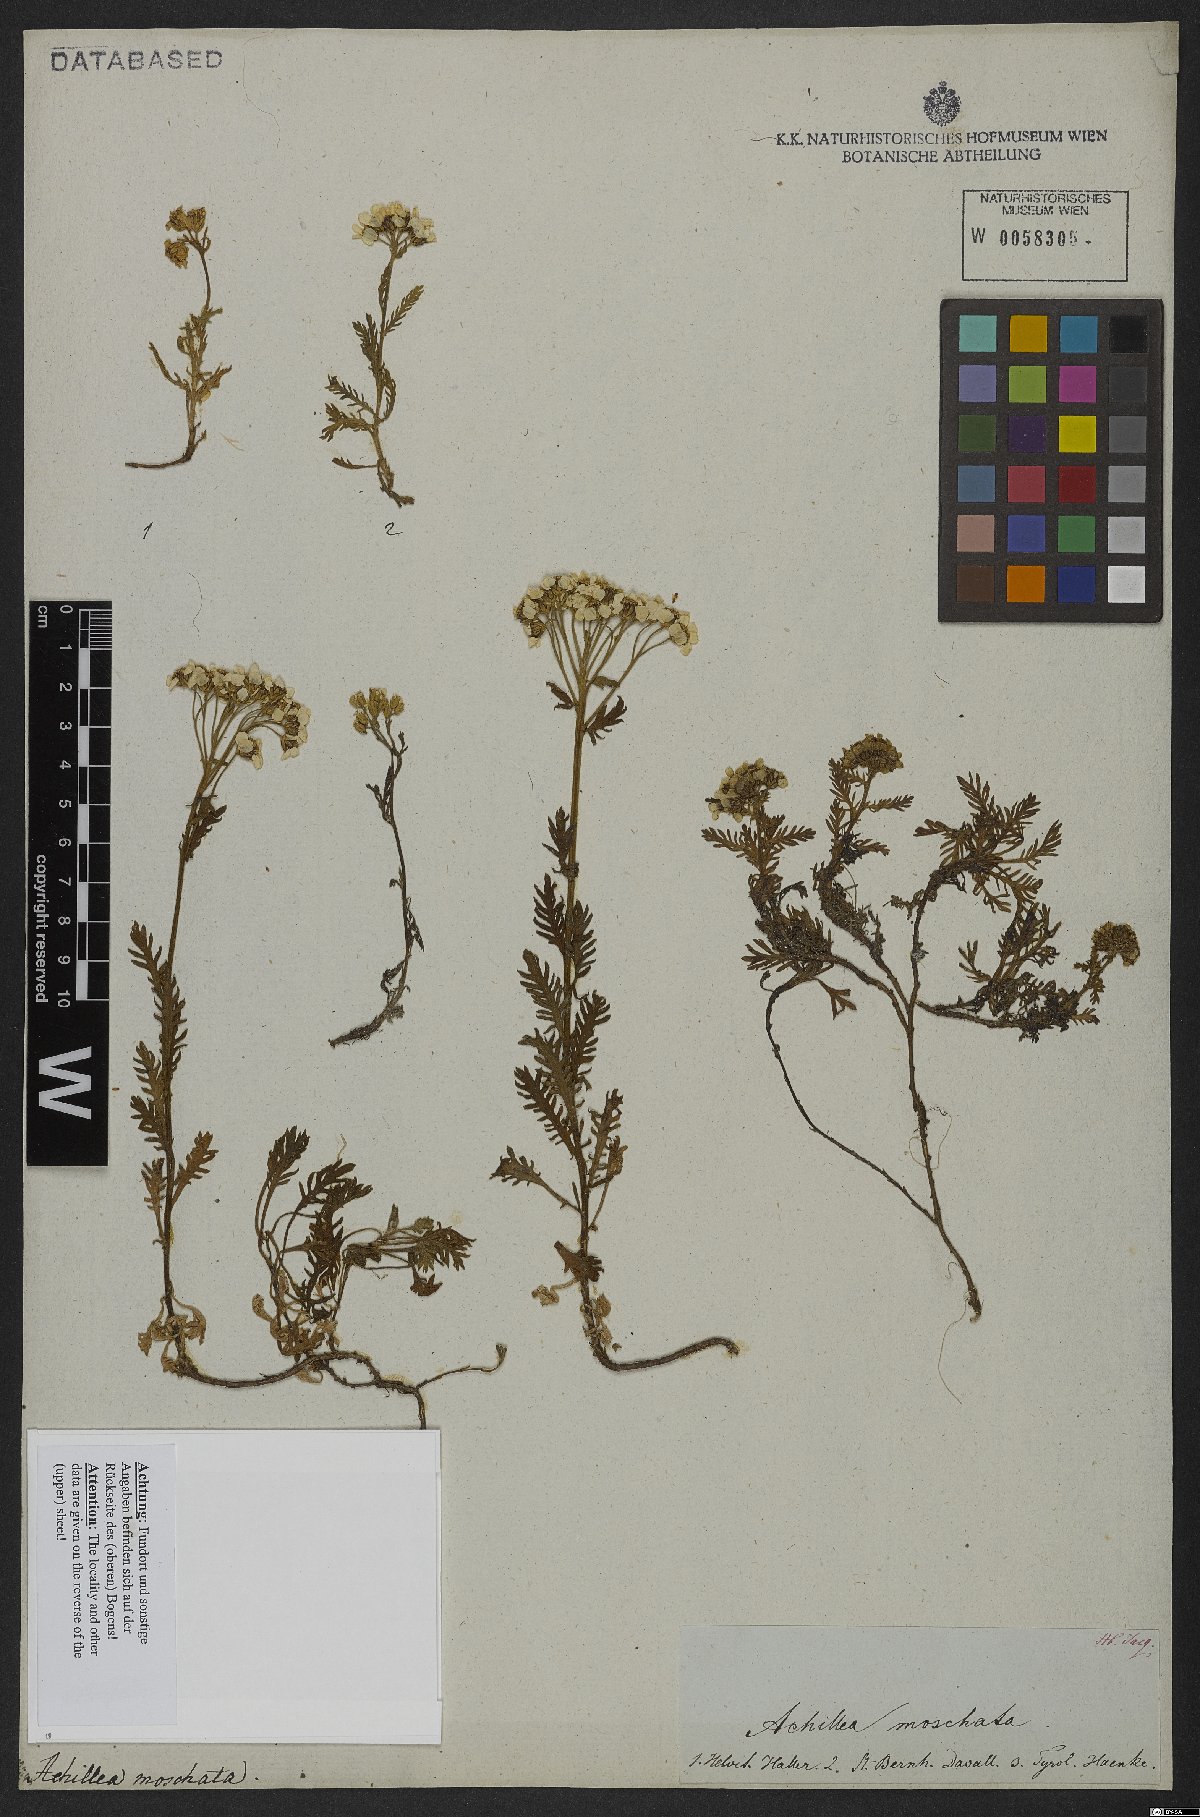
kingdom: Plantae
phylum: Tracheophyta
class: Magnoliopsida
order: Asterales
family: Asteraceae
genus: Achillea
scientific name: Achillea erba-rotta
